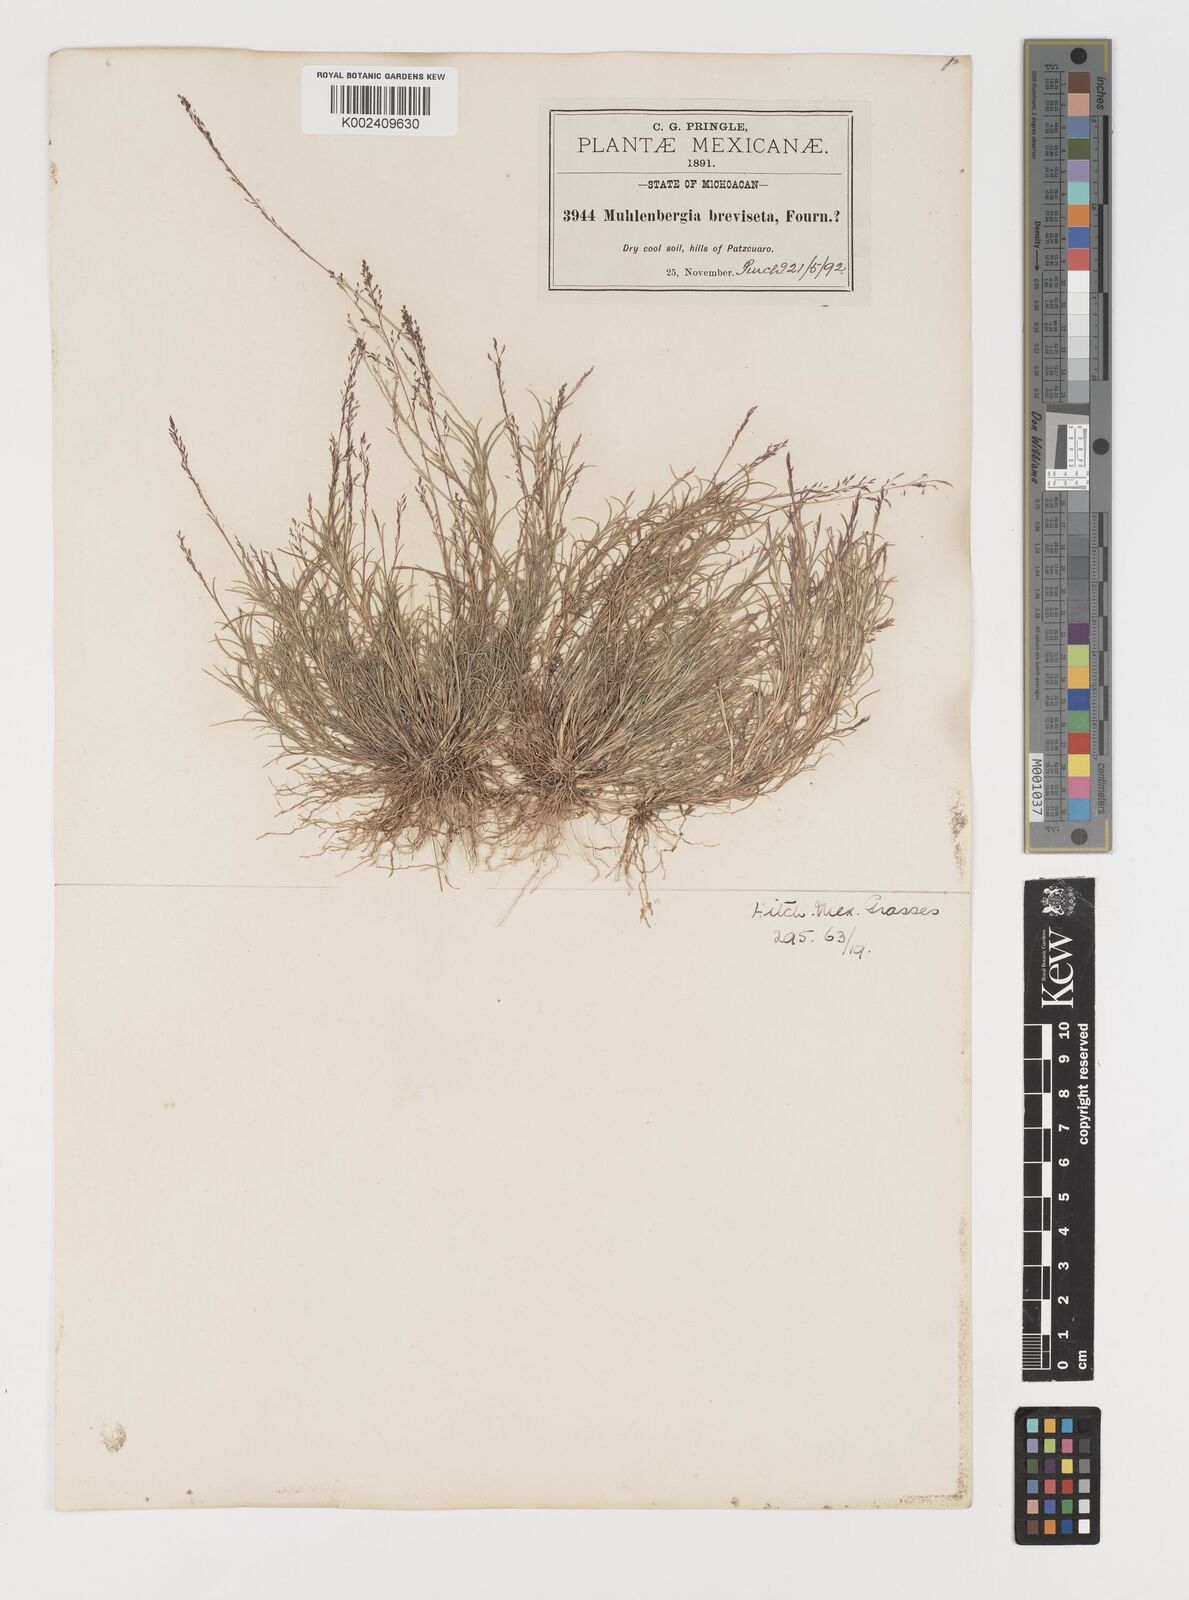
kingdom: Plantae
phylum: Tracheophyta
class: Liliopsida
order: Poales
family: Poaceae
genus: Muhlenbergia
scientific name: Muhlenbergia breviseta
